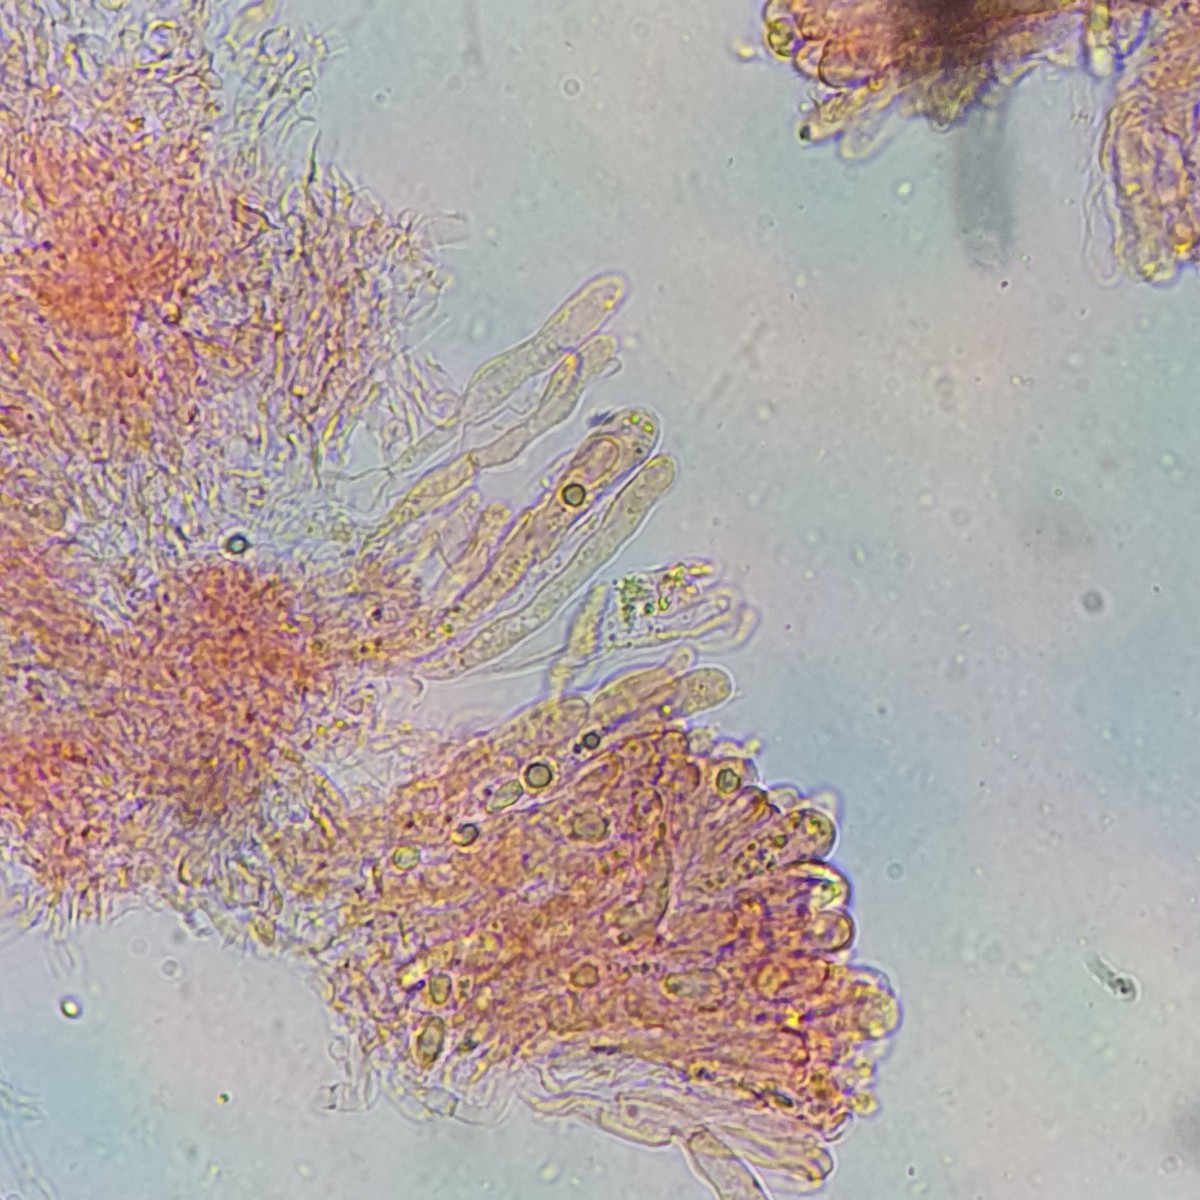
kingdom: Fungi
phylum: Basidiomycota
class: Agaricomycetes
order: Agaricales
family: Clavariaceae
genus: Clavaria
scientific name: Clavaria fragilis
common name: bugtet køllesvamp
